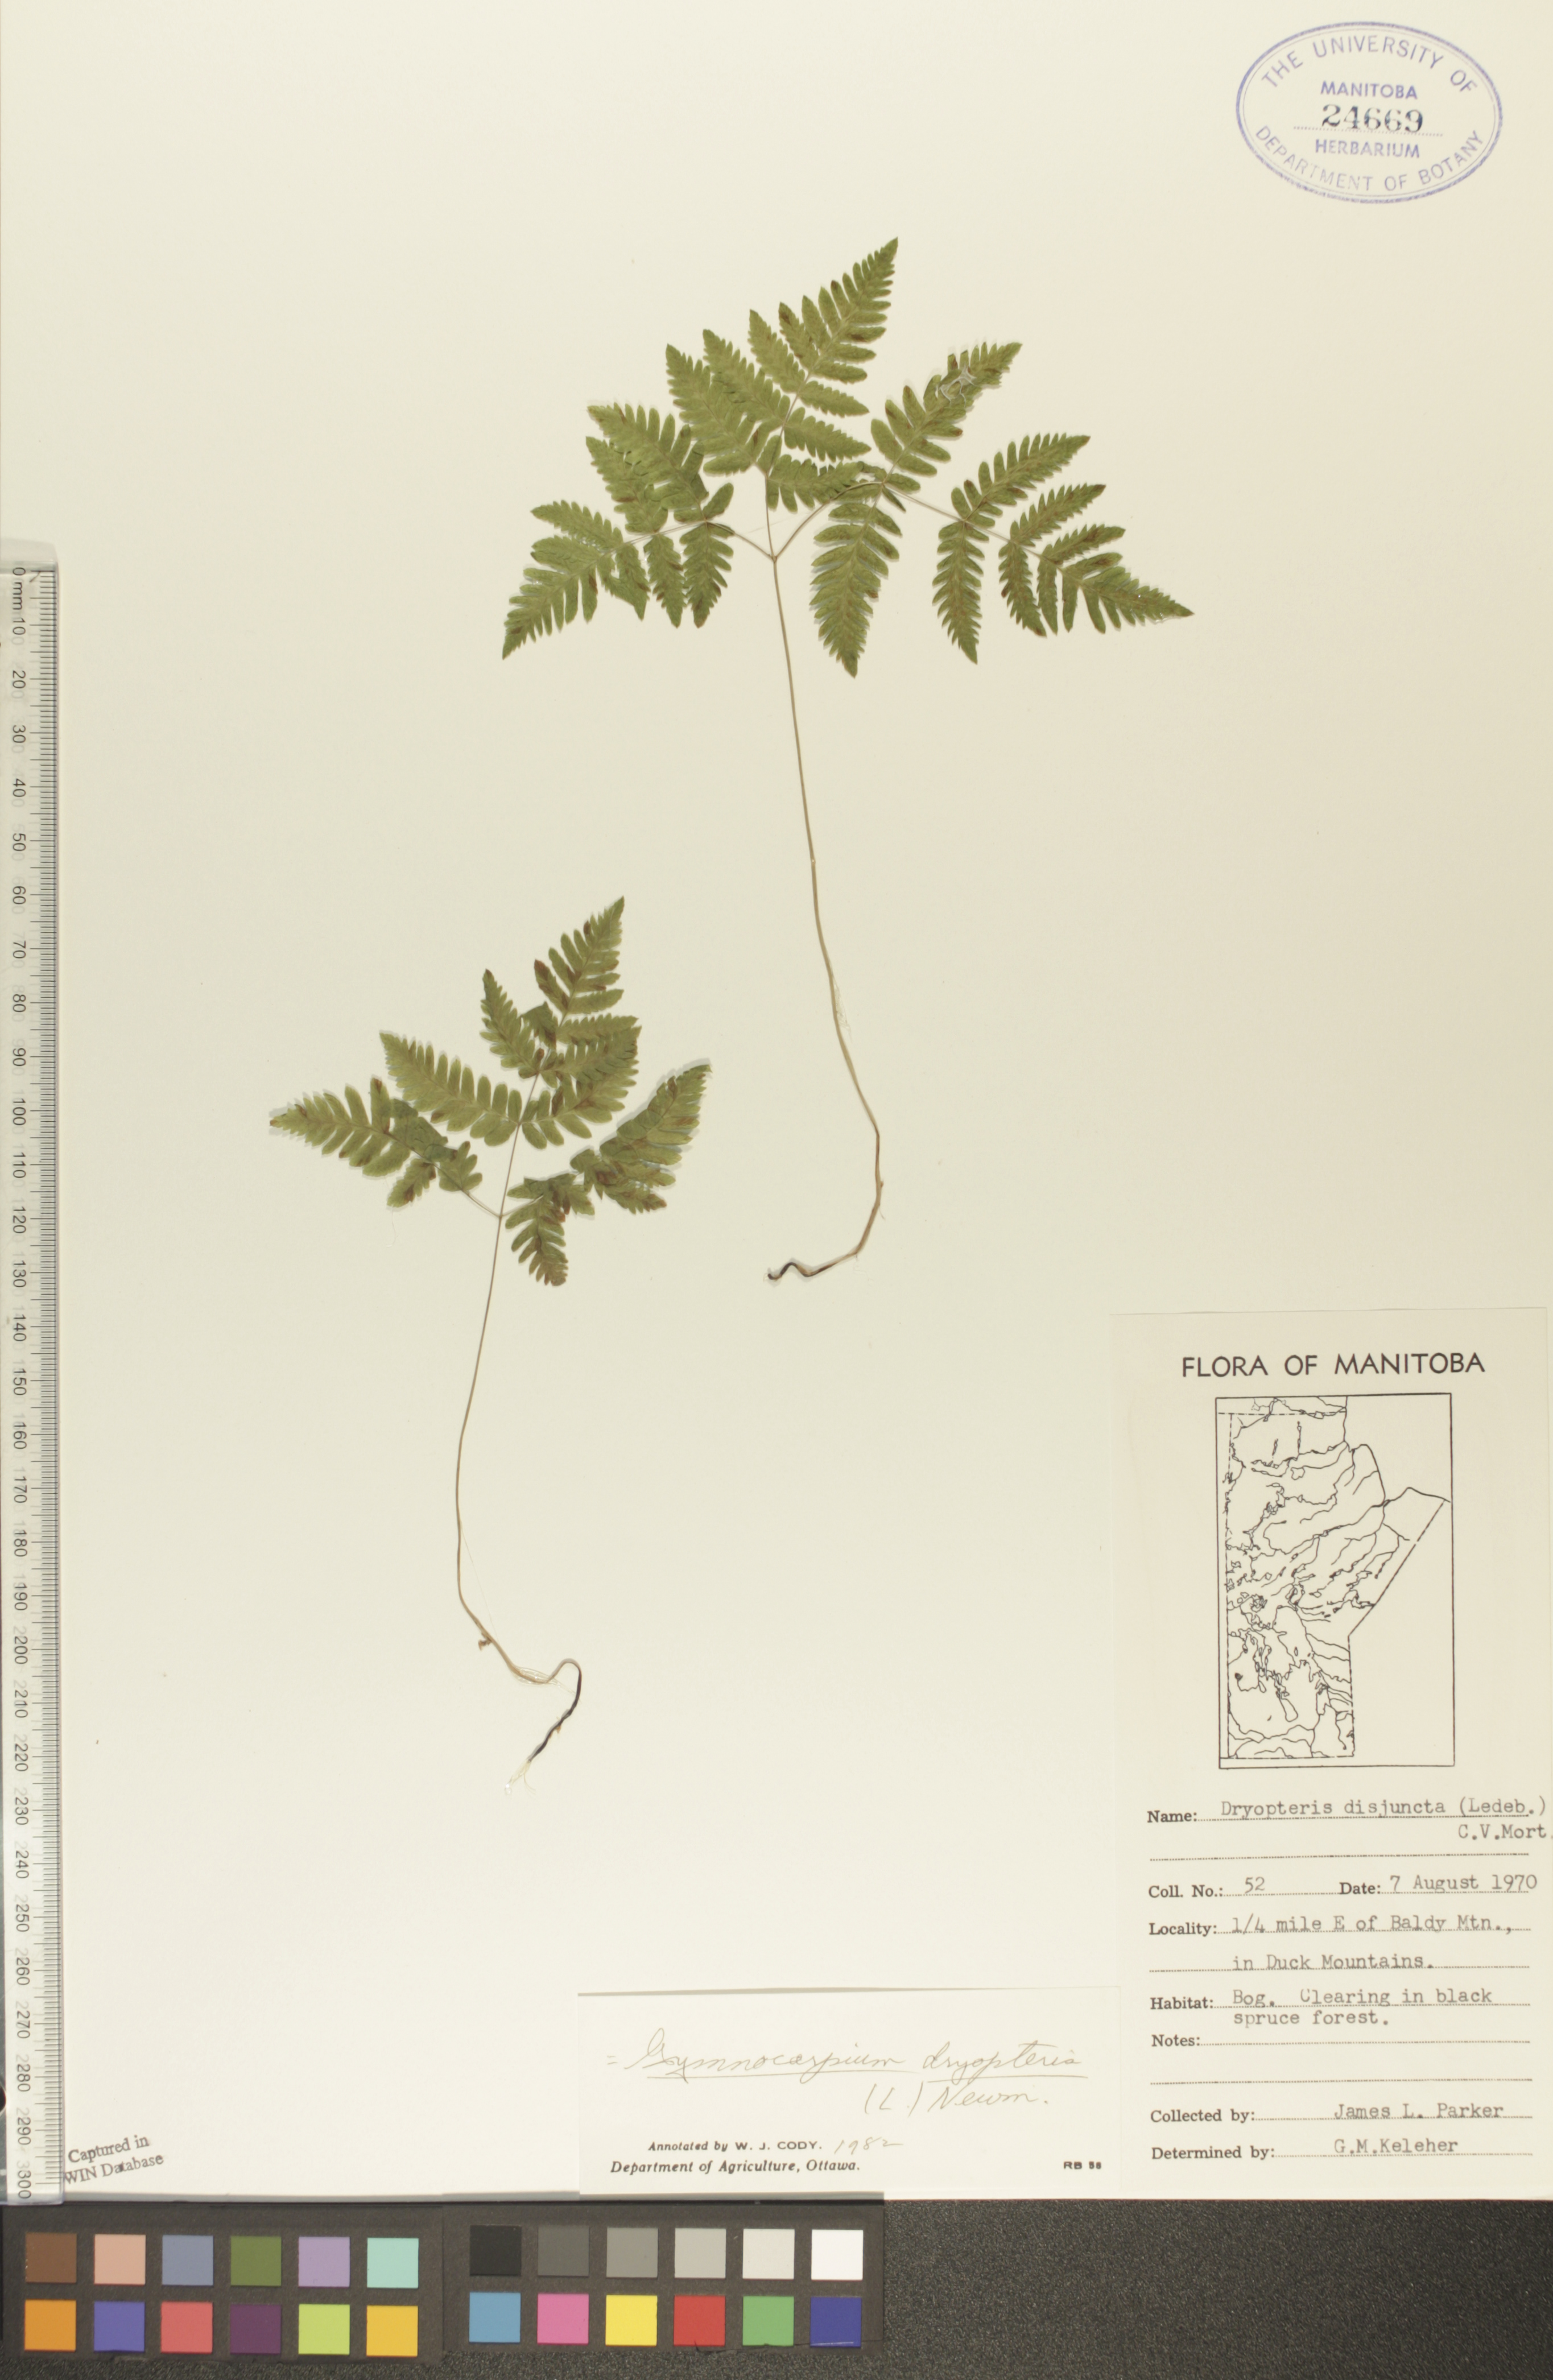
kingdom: Plantae
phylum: Tracheophyta
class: Polypodiopsida
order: Polypodiales
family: Cystopteridaceae
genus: Gymnocarpium
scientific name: Gymnocarpium dryopteris
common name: Oak fern
